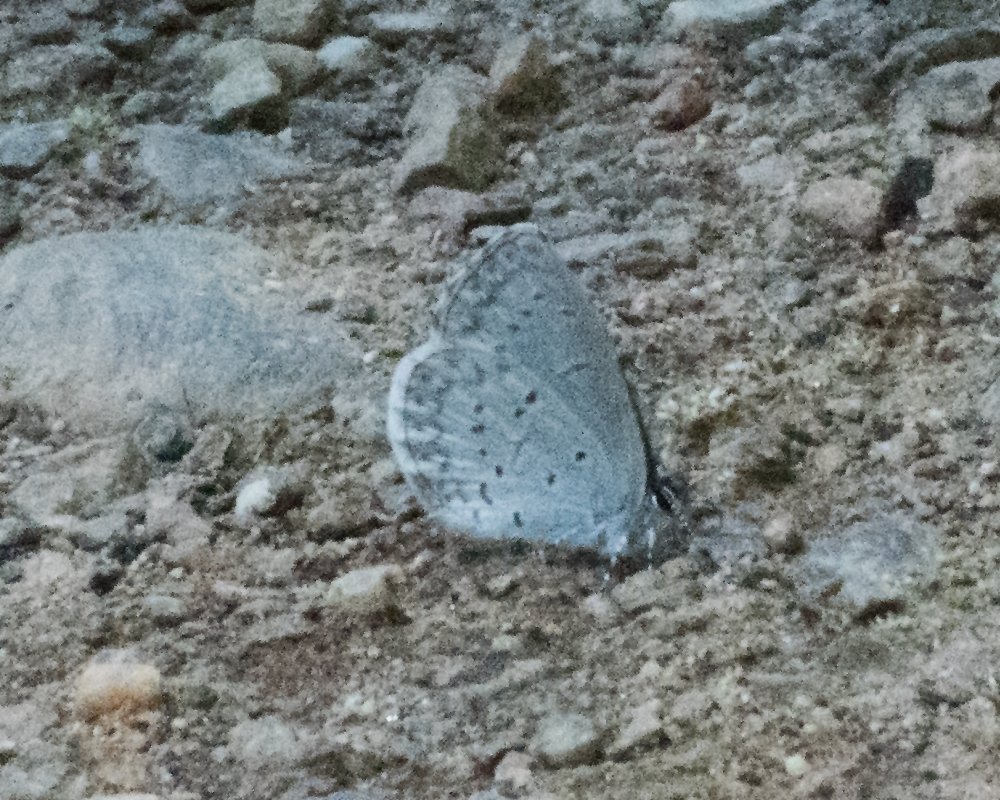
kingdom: Animalia
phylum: Arthropoda
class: Insecta
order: Lepidoptera
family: Lycaenidae
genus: Celastrina
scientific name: Celastrina ladon
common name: Echo Azure
